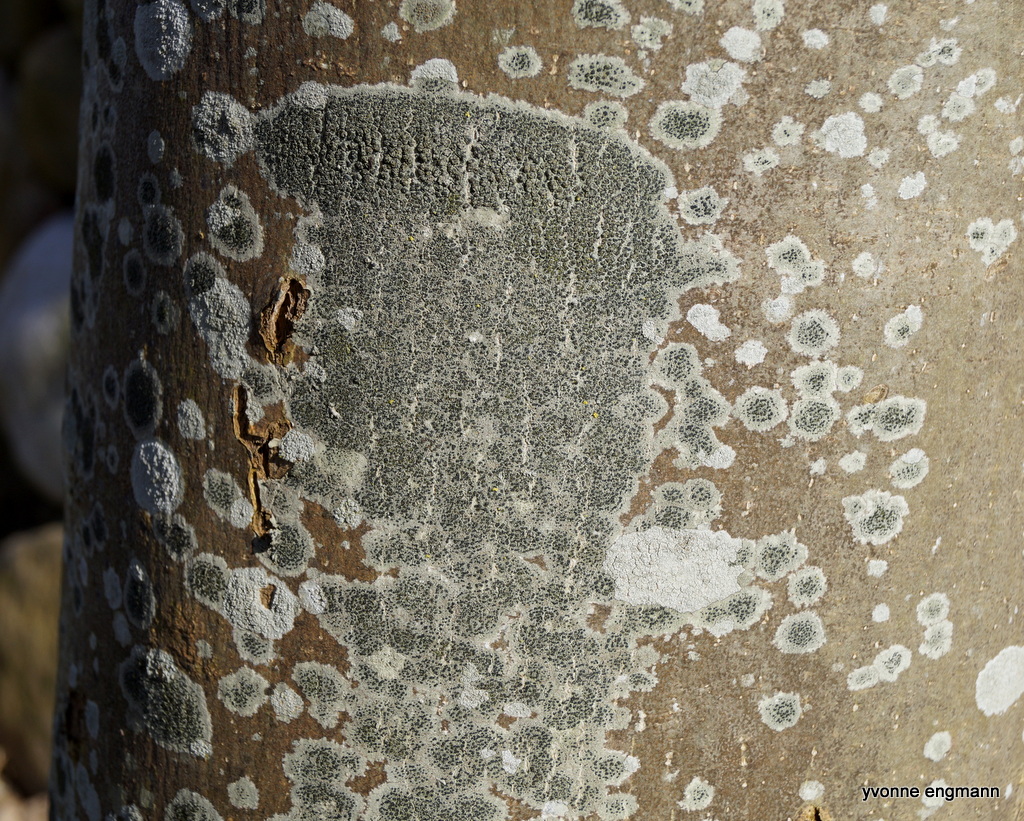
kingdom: Fungi
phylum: Ascomycota
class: Lecanoromycetes
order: Lecanorales
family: Lecanoraceae
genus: Lecidella
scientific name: Lecidella elaeochroma
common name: grågrøn skivelav
